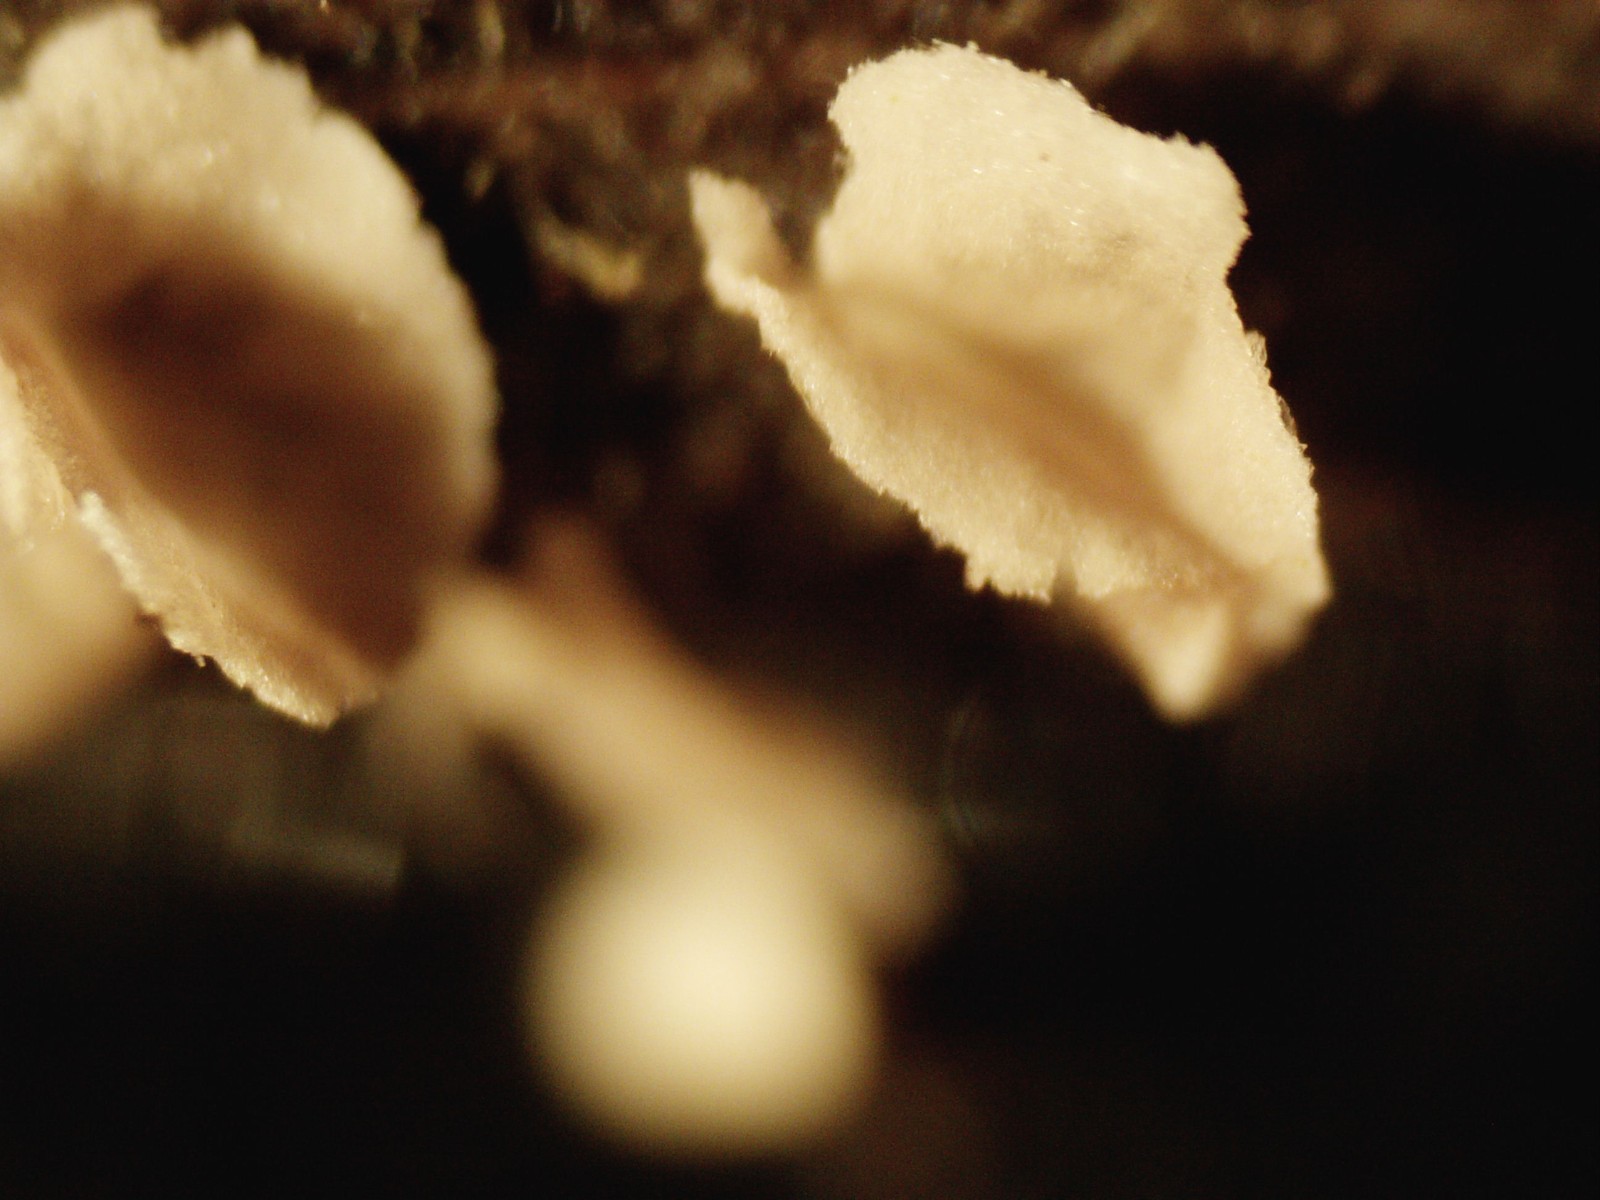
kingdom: Fungi
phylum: Basidiomycota
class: Agaricomycetes
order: Agaricales
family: Hygrophoraceae
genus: Arrhenia
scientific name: Arrhenia retiruga
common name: lille fontænehat
